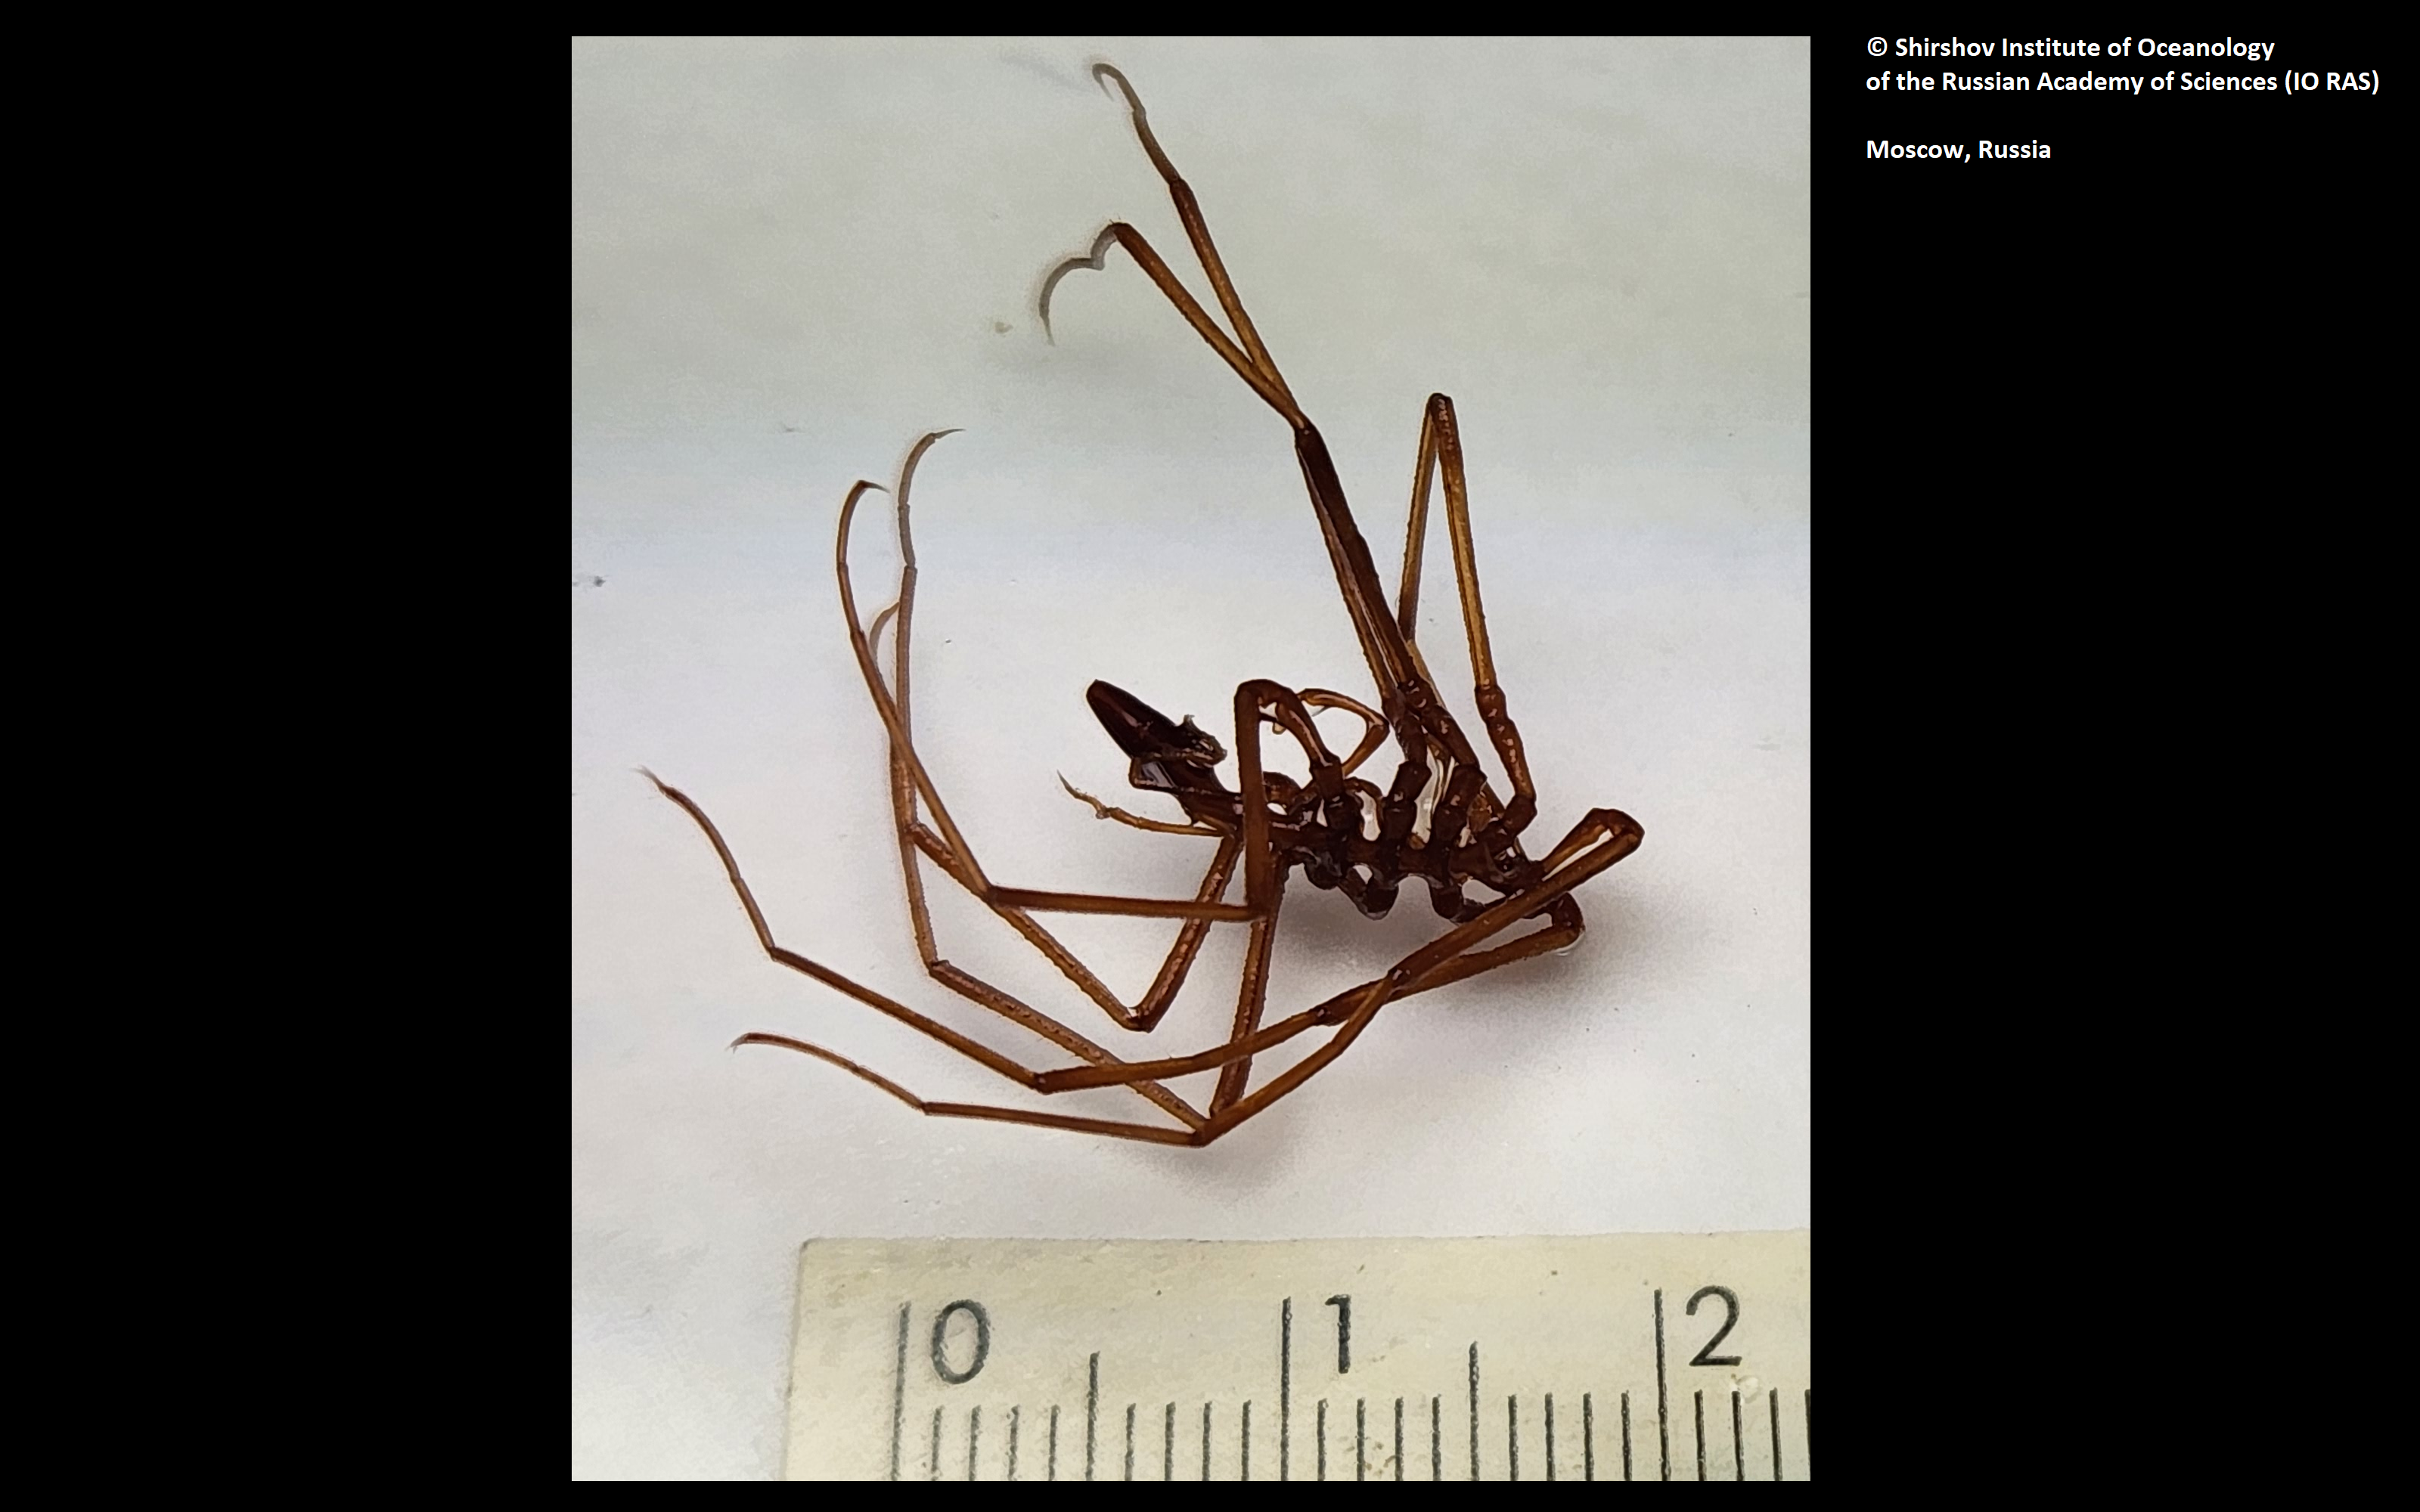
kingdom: Animalia
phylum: Arthropoda
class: Pycnogonida
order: Pantopoda
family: Ascorhynchidae
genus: Ascorhynchus
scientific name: Ascorhynchus birsteini
